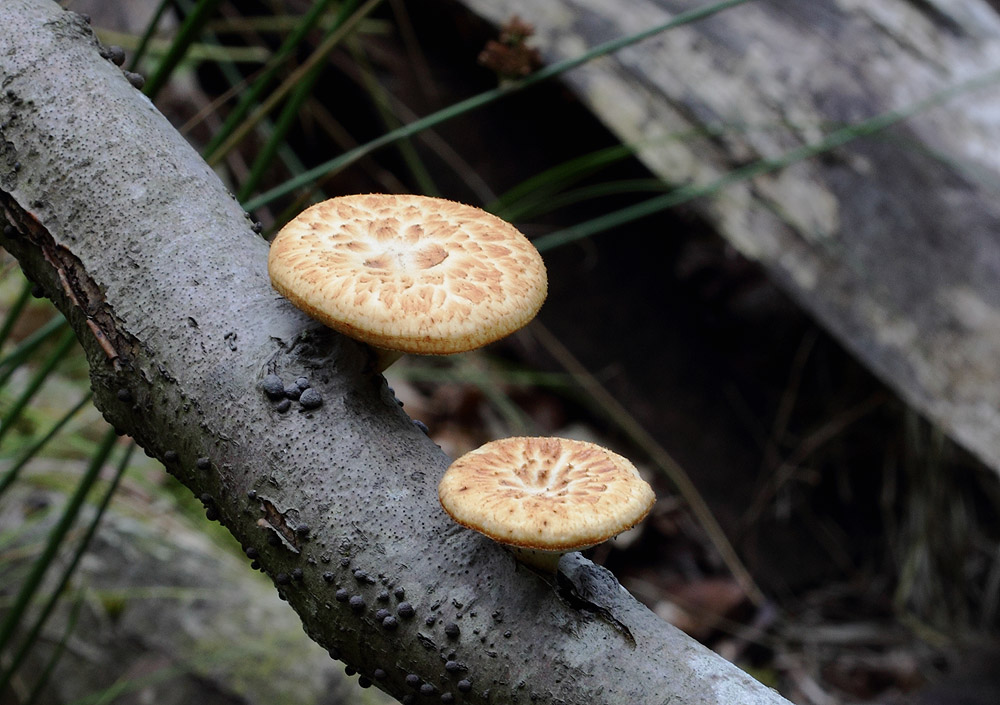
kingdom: Fungi
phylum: Basidiomycota
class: Agaricomycetes
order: Polyporales
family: Polyporaceae
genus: Polyporus
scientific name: Polyporus tuberaster
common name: knoldet stilkporesvamp
